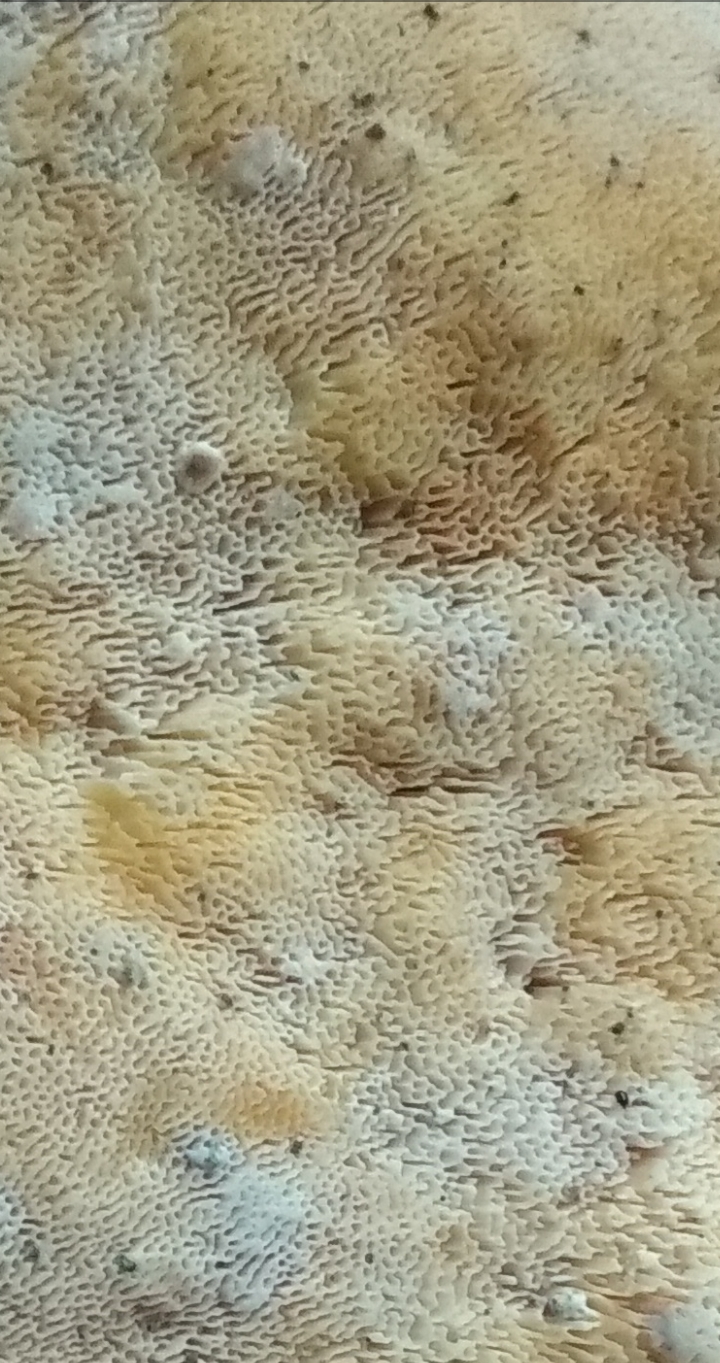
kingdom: Fungi
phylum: Basidiomycota
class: Agaricomycetes
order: Polyporales
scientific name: Polyporales
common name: poresvampordenen
